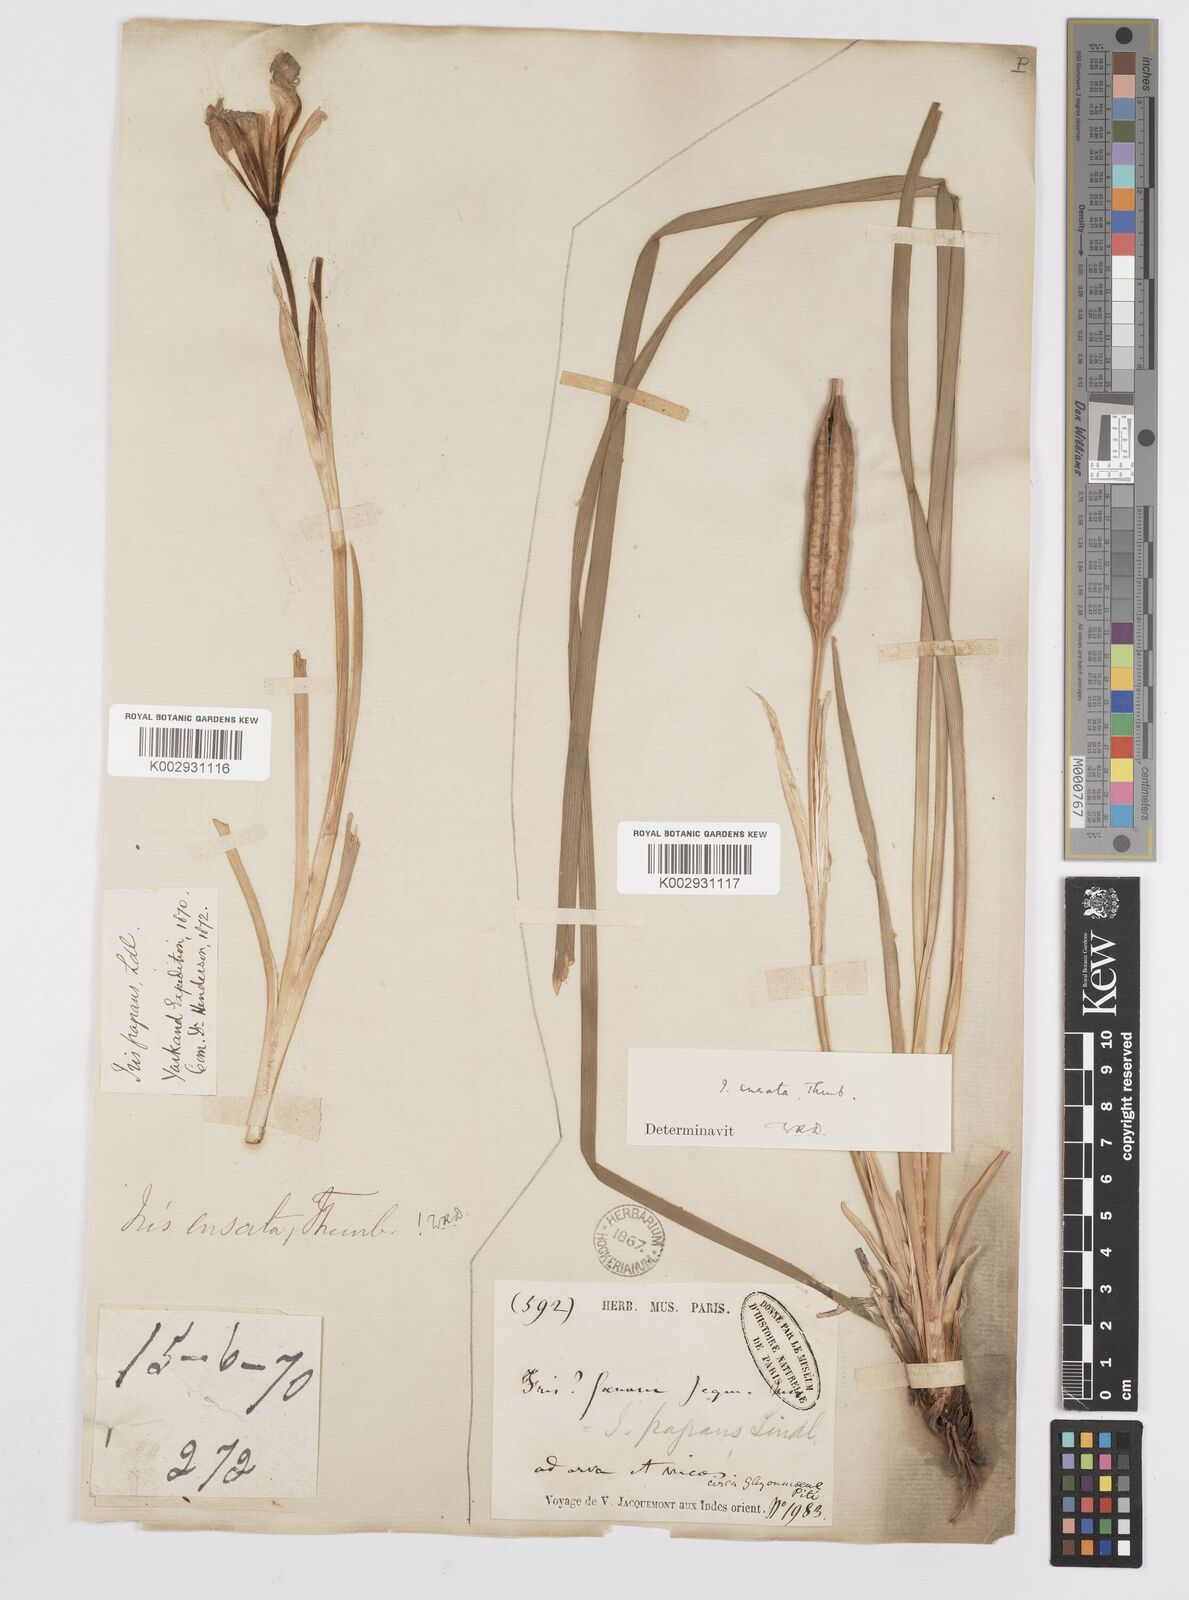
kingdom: Plantae
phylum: Tracheophyta
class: Liliopsida
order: Asparagales
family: Iridaceae
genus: Iris
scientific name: Iris ensata
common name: Beaked iris
